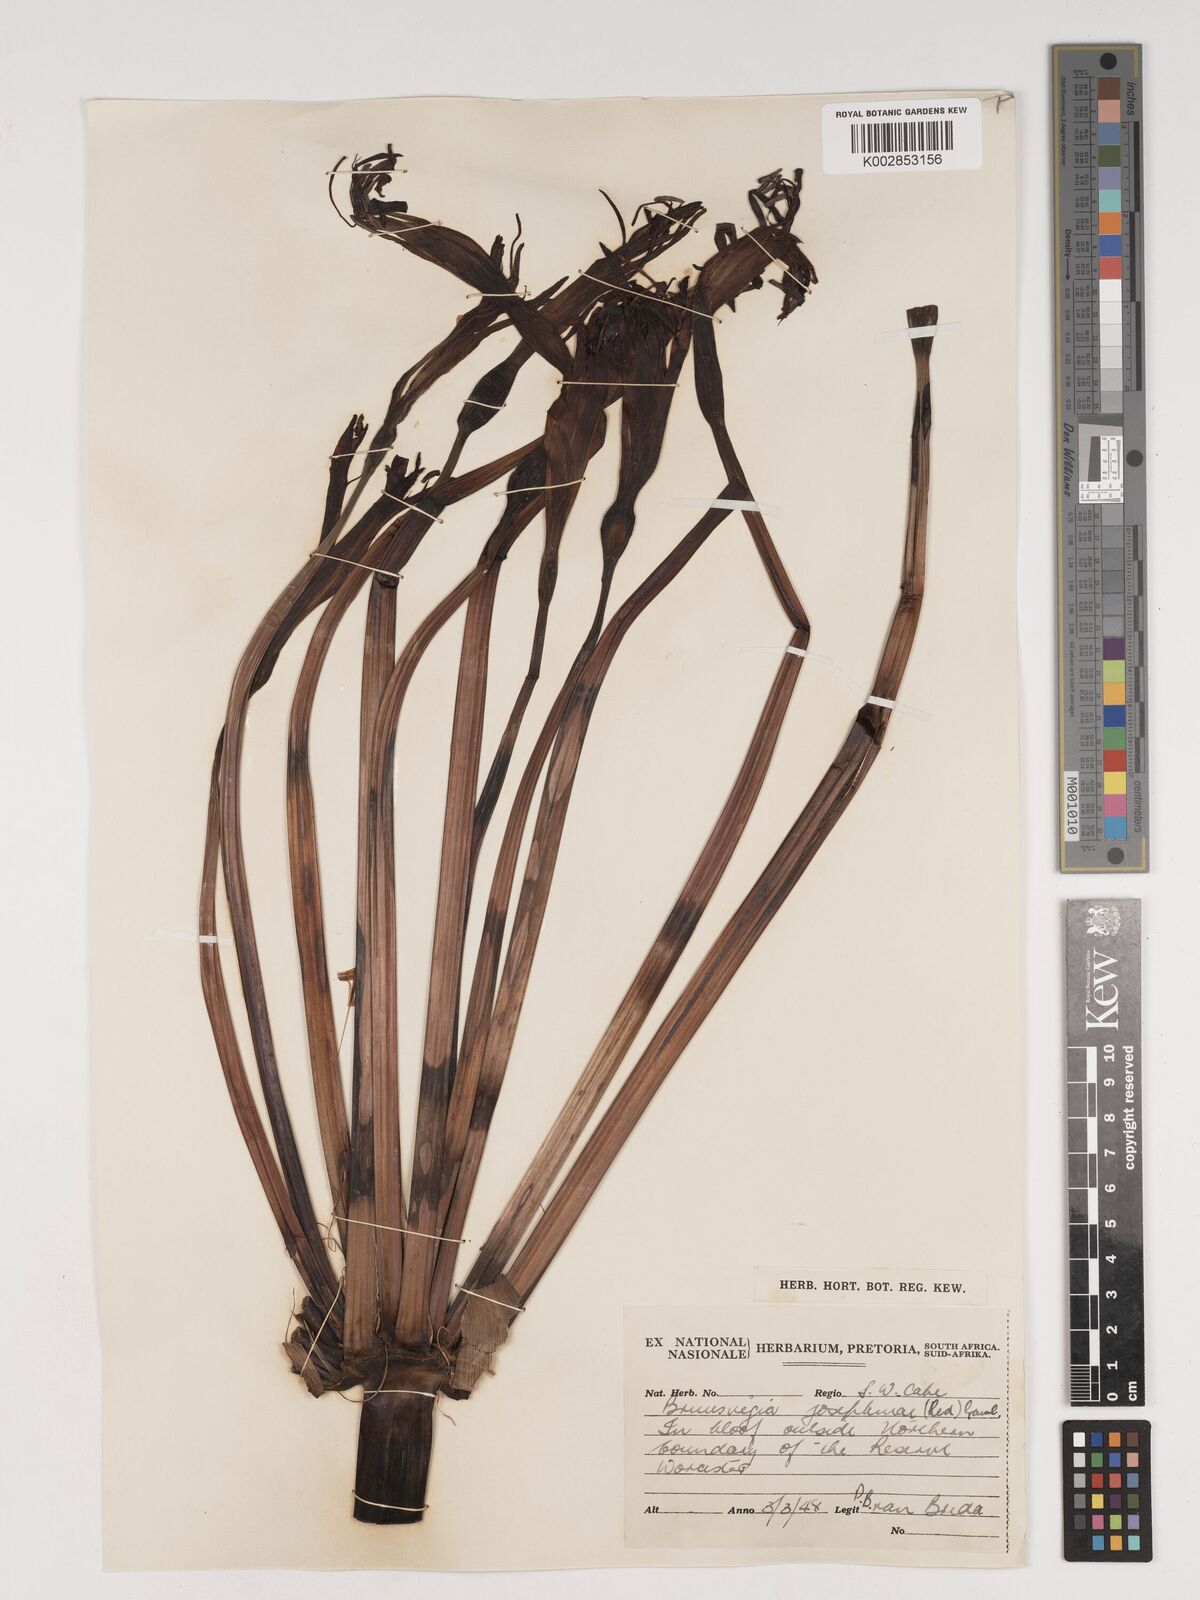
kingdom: Plantae
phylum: Tracheophyta
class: Liliopsida
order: Asparagales
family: Amaryllidaceae
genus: Brunsvigia
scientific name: Brunsvigia josephinae
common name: Josephine's-lily
